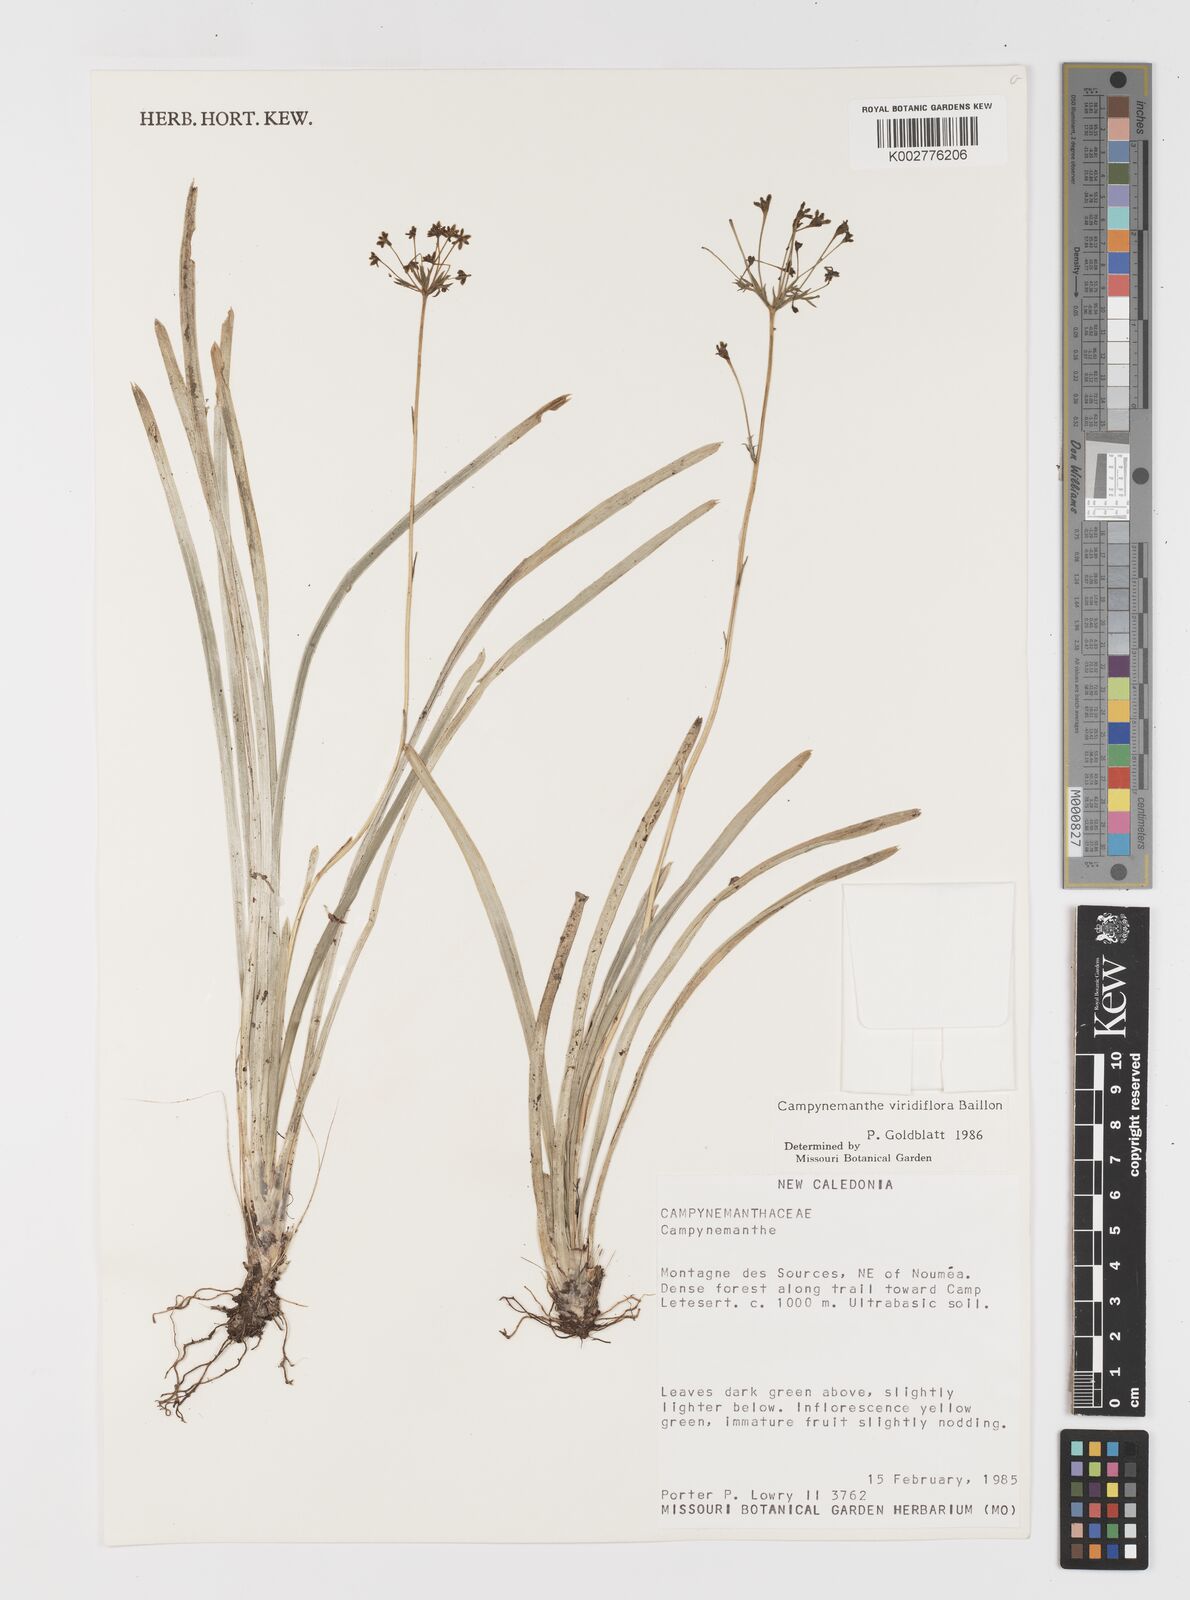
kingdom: Plantae
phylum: Tracheophyta
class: Liliopsida
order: Liliales
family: Campynemataceae
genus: Campynemanthe
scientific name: Campynemanthe viridiflora
